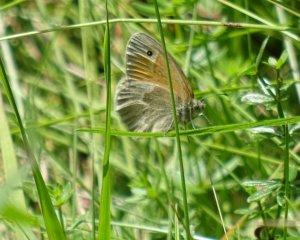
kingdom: Animalia
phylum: Arthropoda
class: Insecta
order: Lepidoptera
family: Nymphalidae
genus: Coenonympha
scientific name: Coenonympha tullia
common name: Large Heath
